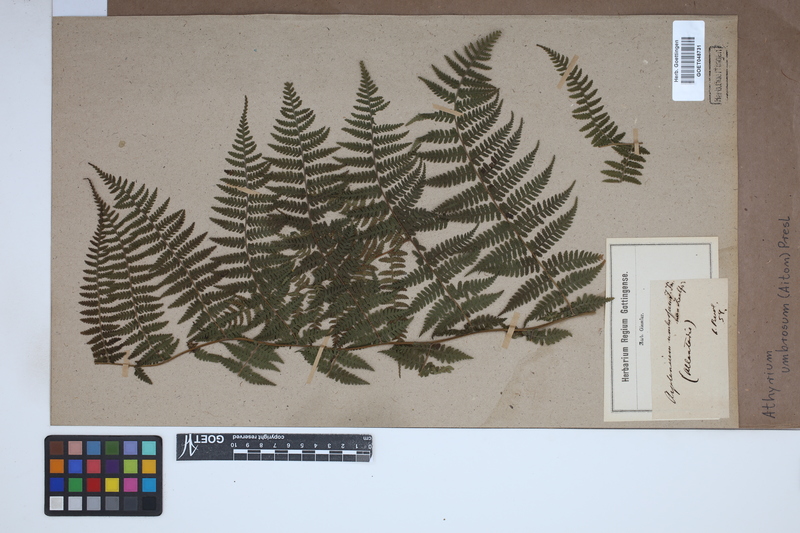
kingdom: Plantae
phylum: Tracheophyta
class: Polypodiopsida
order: Polypodiales
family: Athyriaceae
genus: Diplazium
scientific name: Diplazium caudatum
